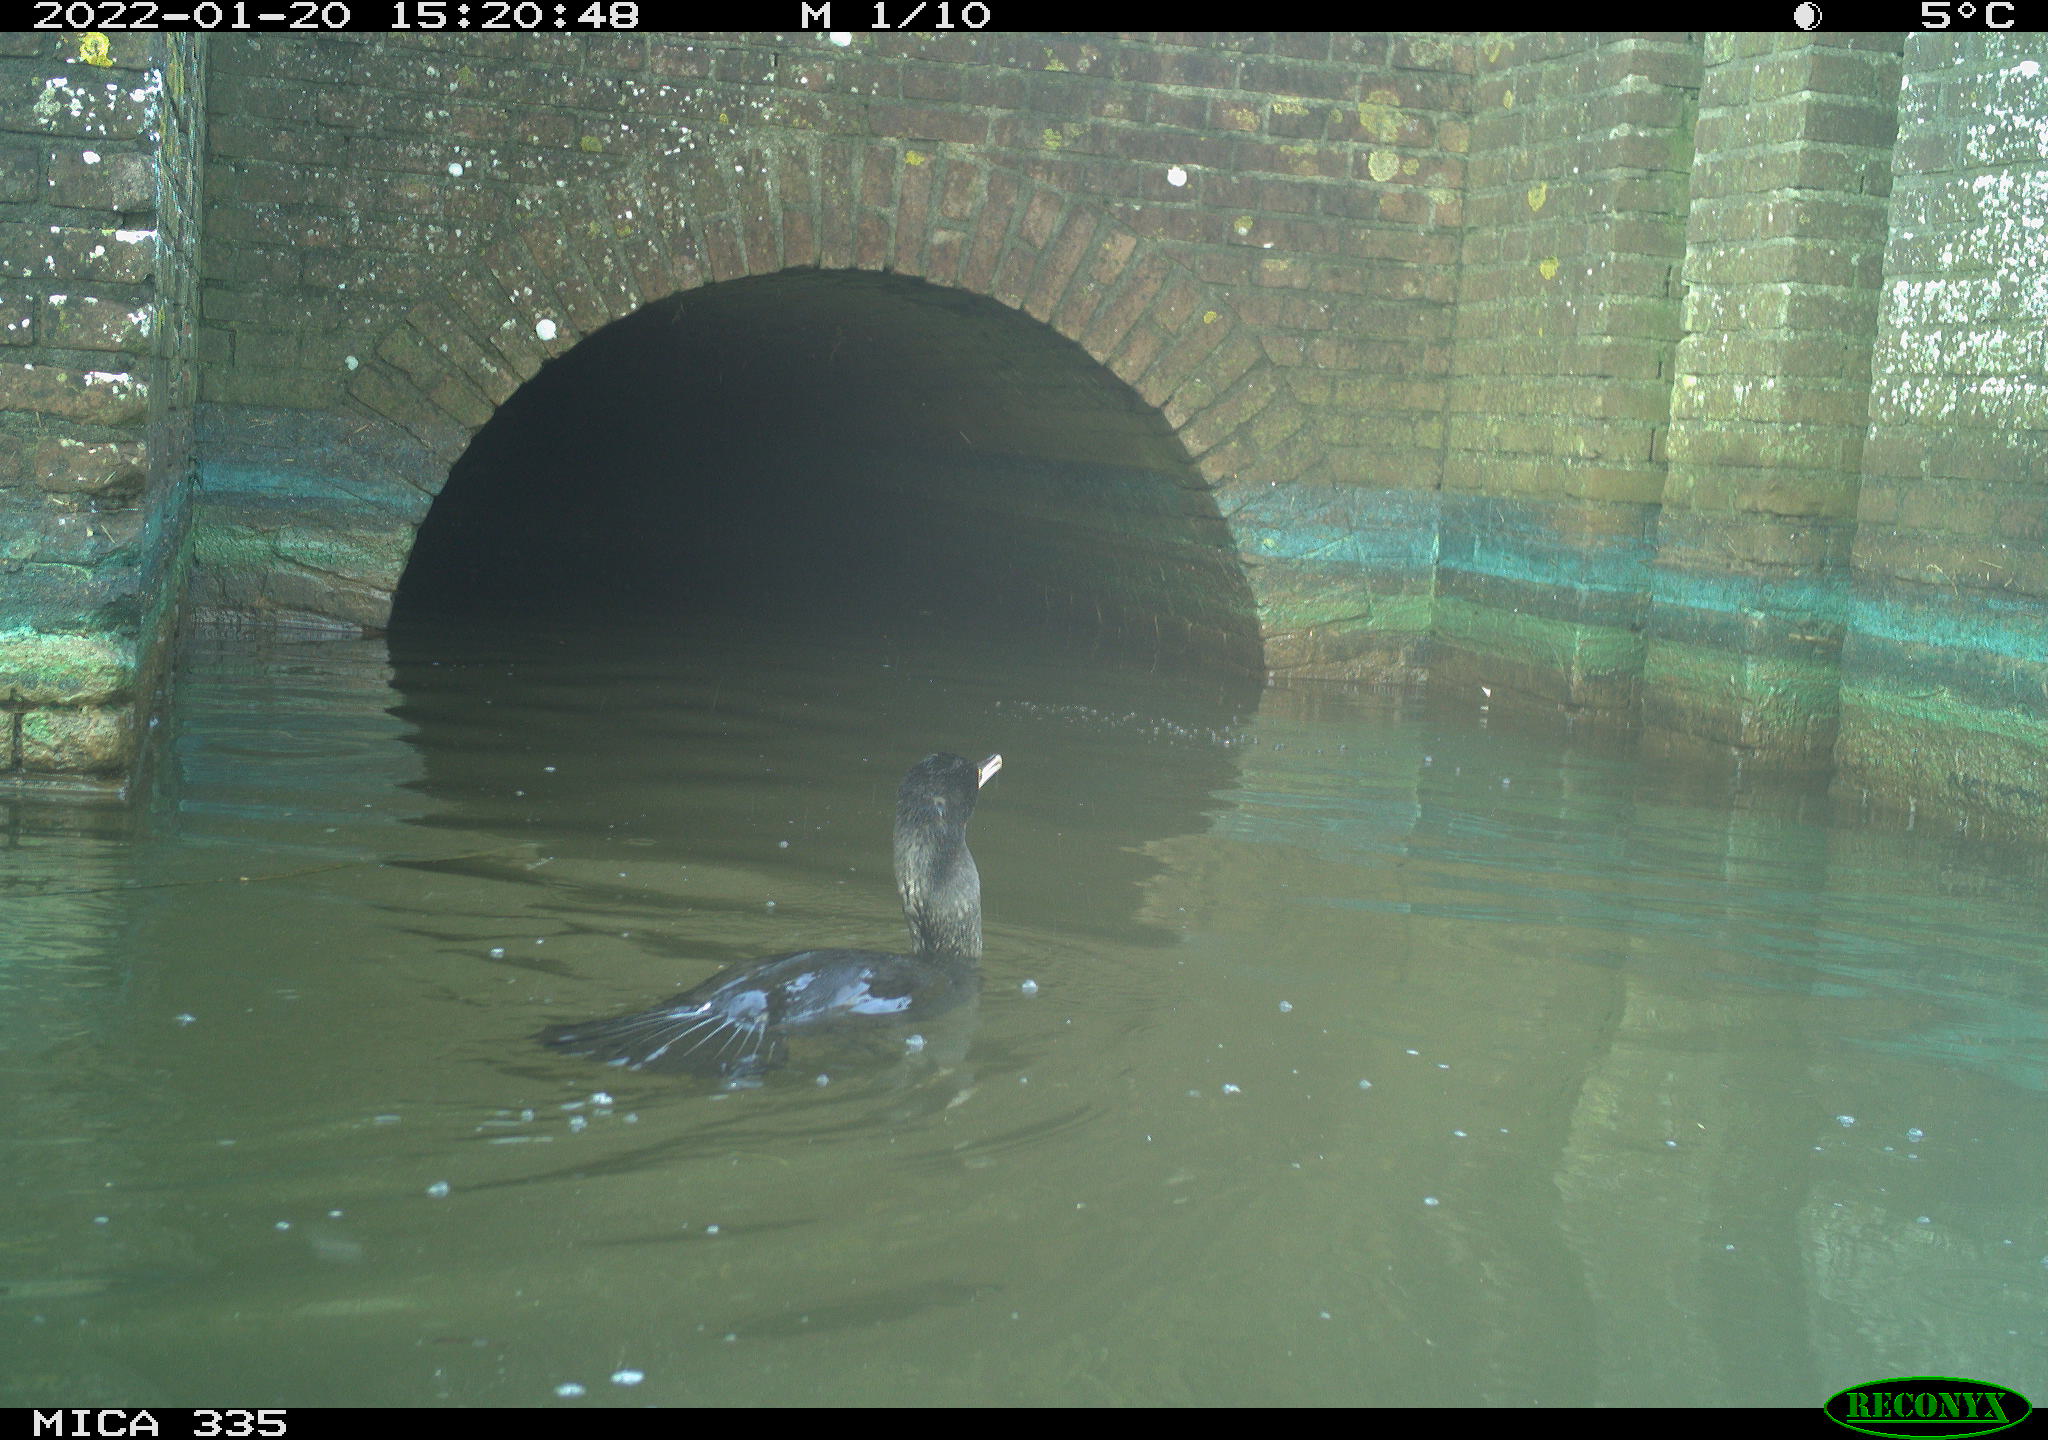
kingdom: Animalia
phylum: Chordata
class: Aves
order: Suliformes
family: Phalacrocoracidae
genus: Phalacrocorax
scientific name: Phalacrocorax carbo
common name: Great cormorant
